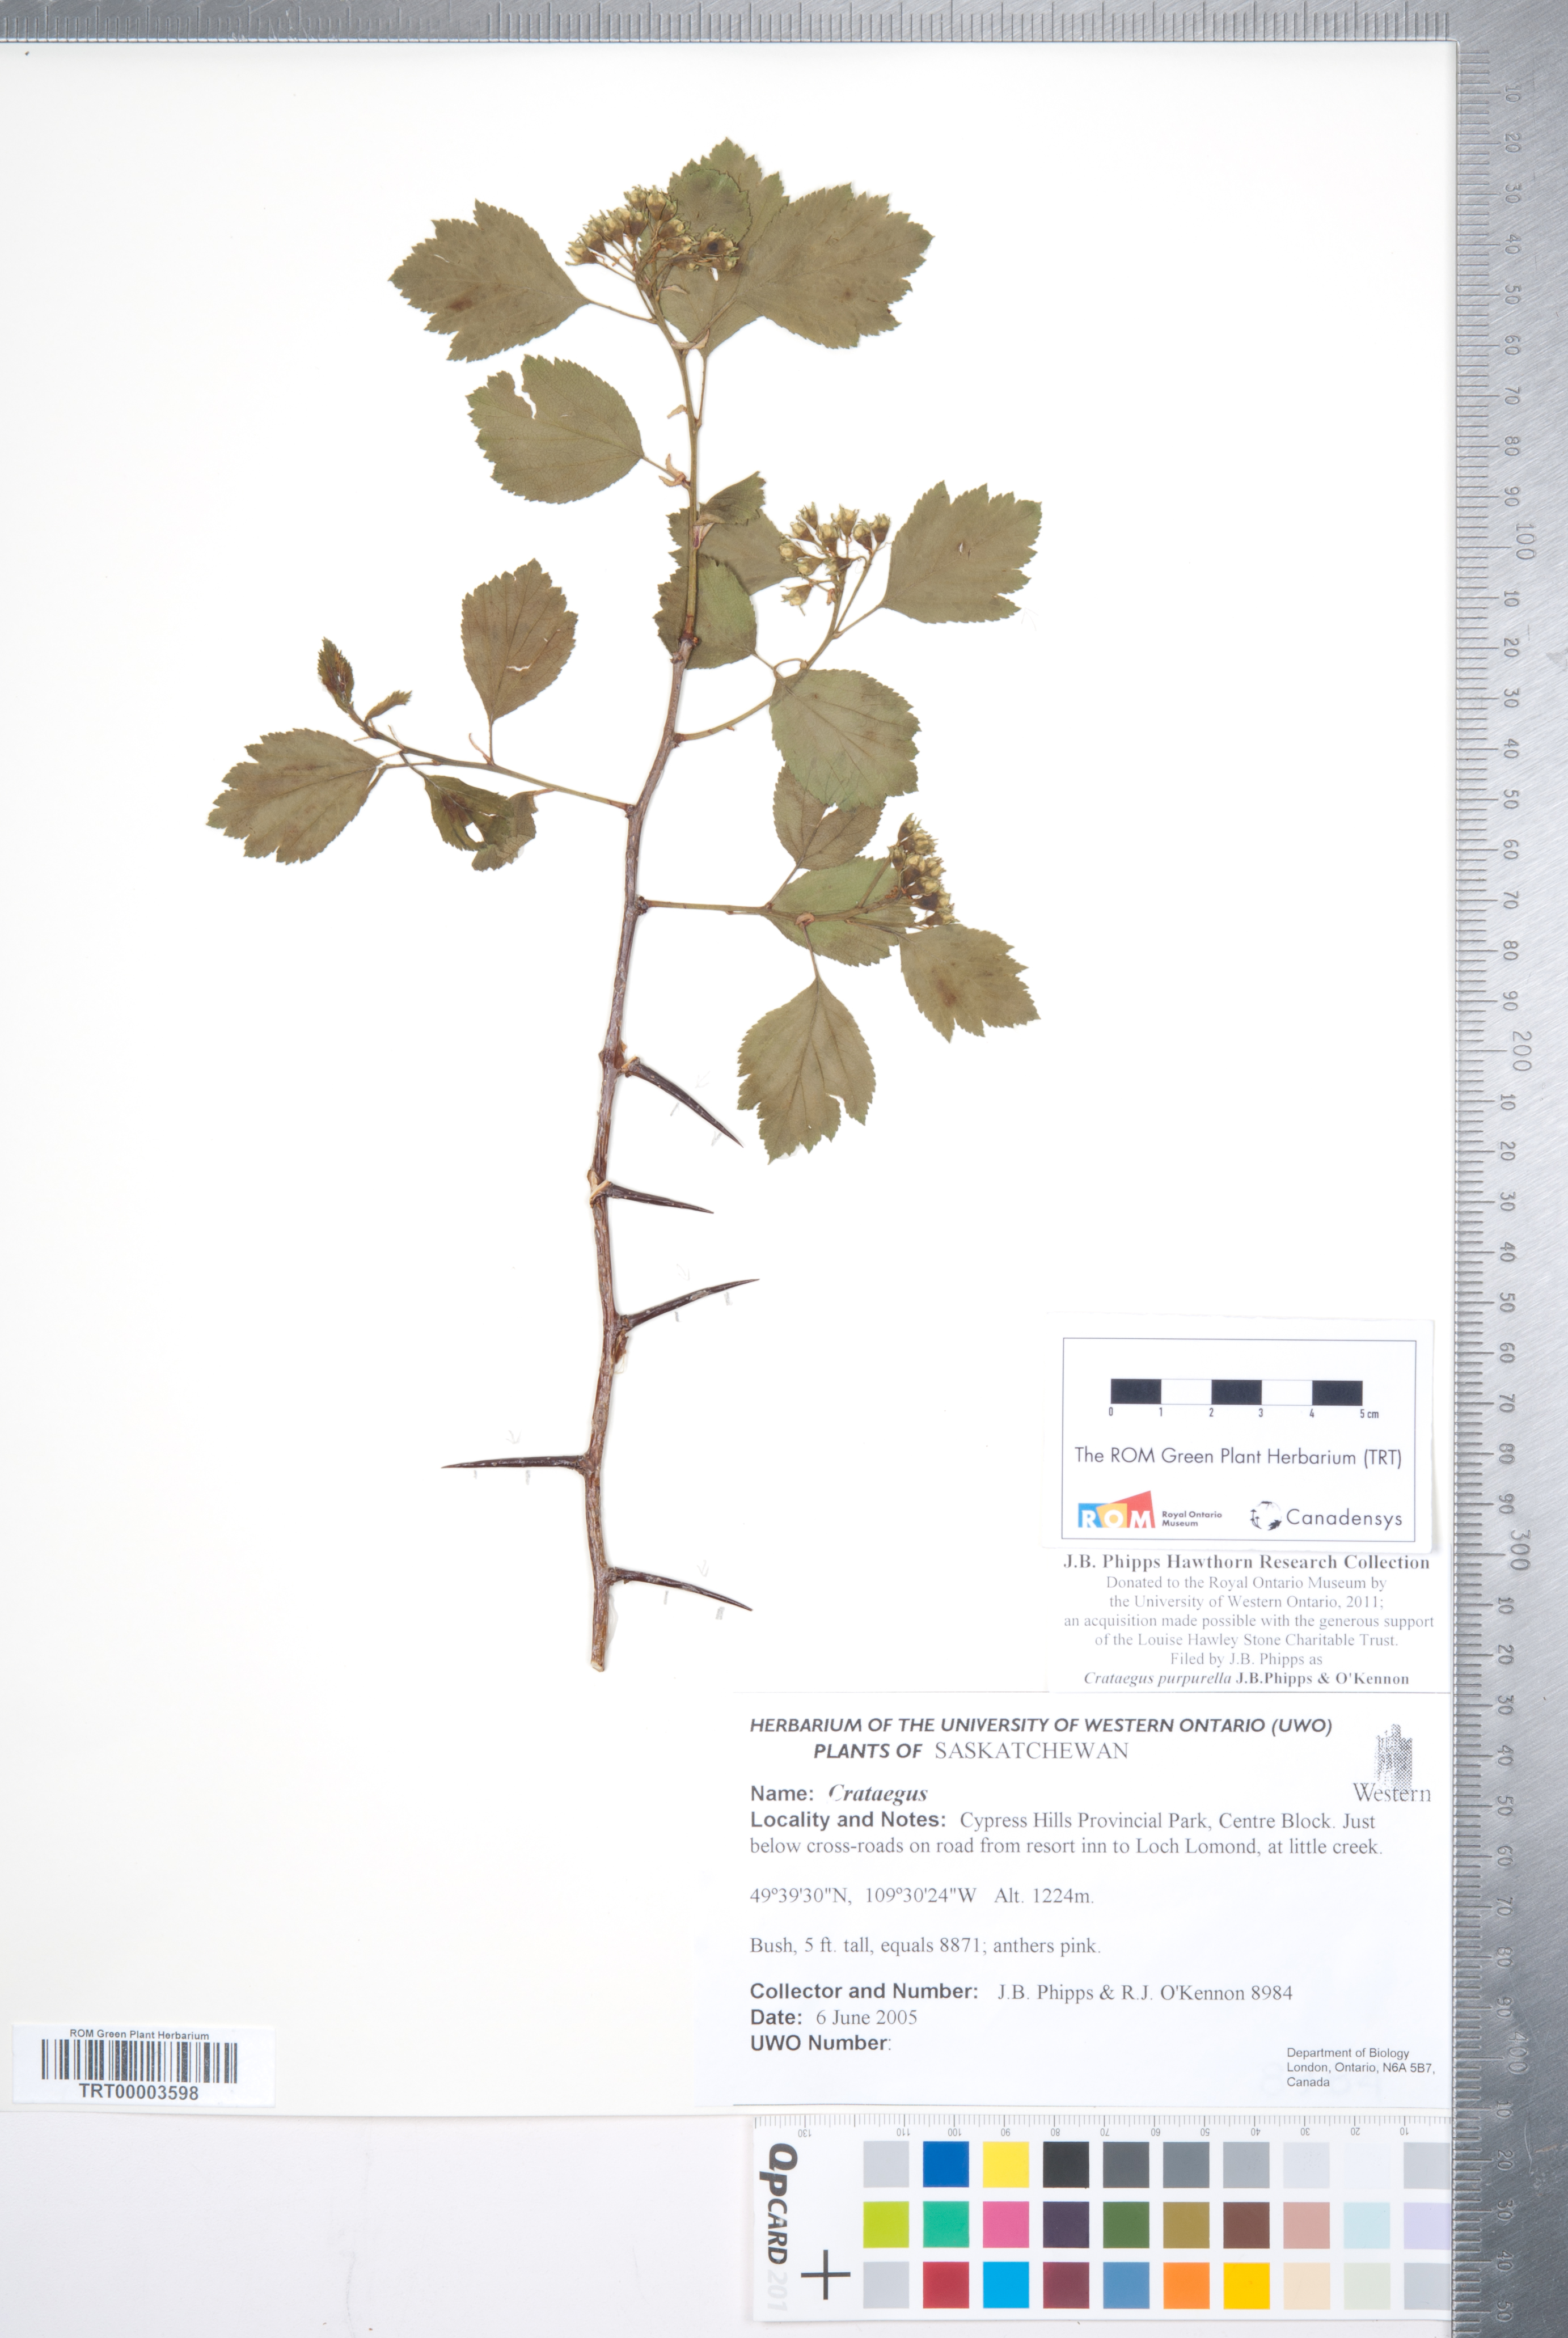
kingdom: Plantae
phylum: Tracheophyta
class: Magnoliopsida
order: Rosales
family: Rosaceae
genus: Crataegus
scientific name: Crataegus purpurella
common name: Loch lomond hawthorn
